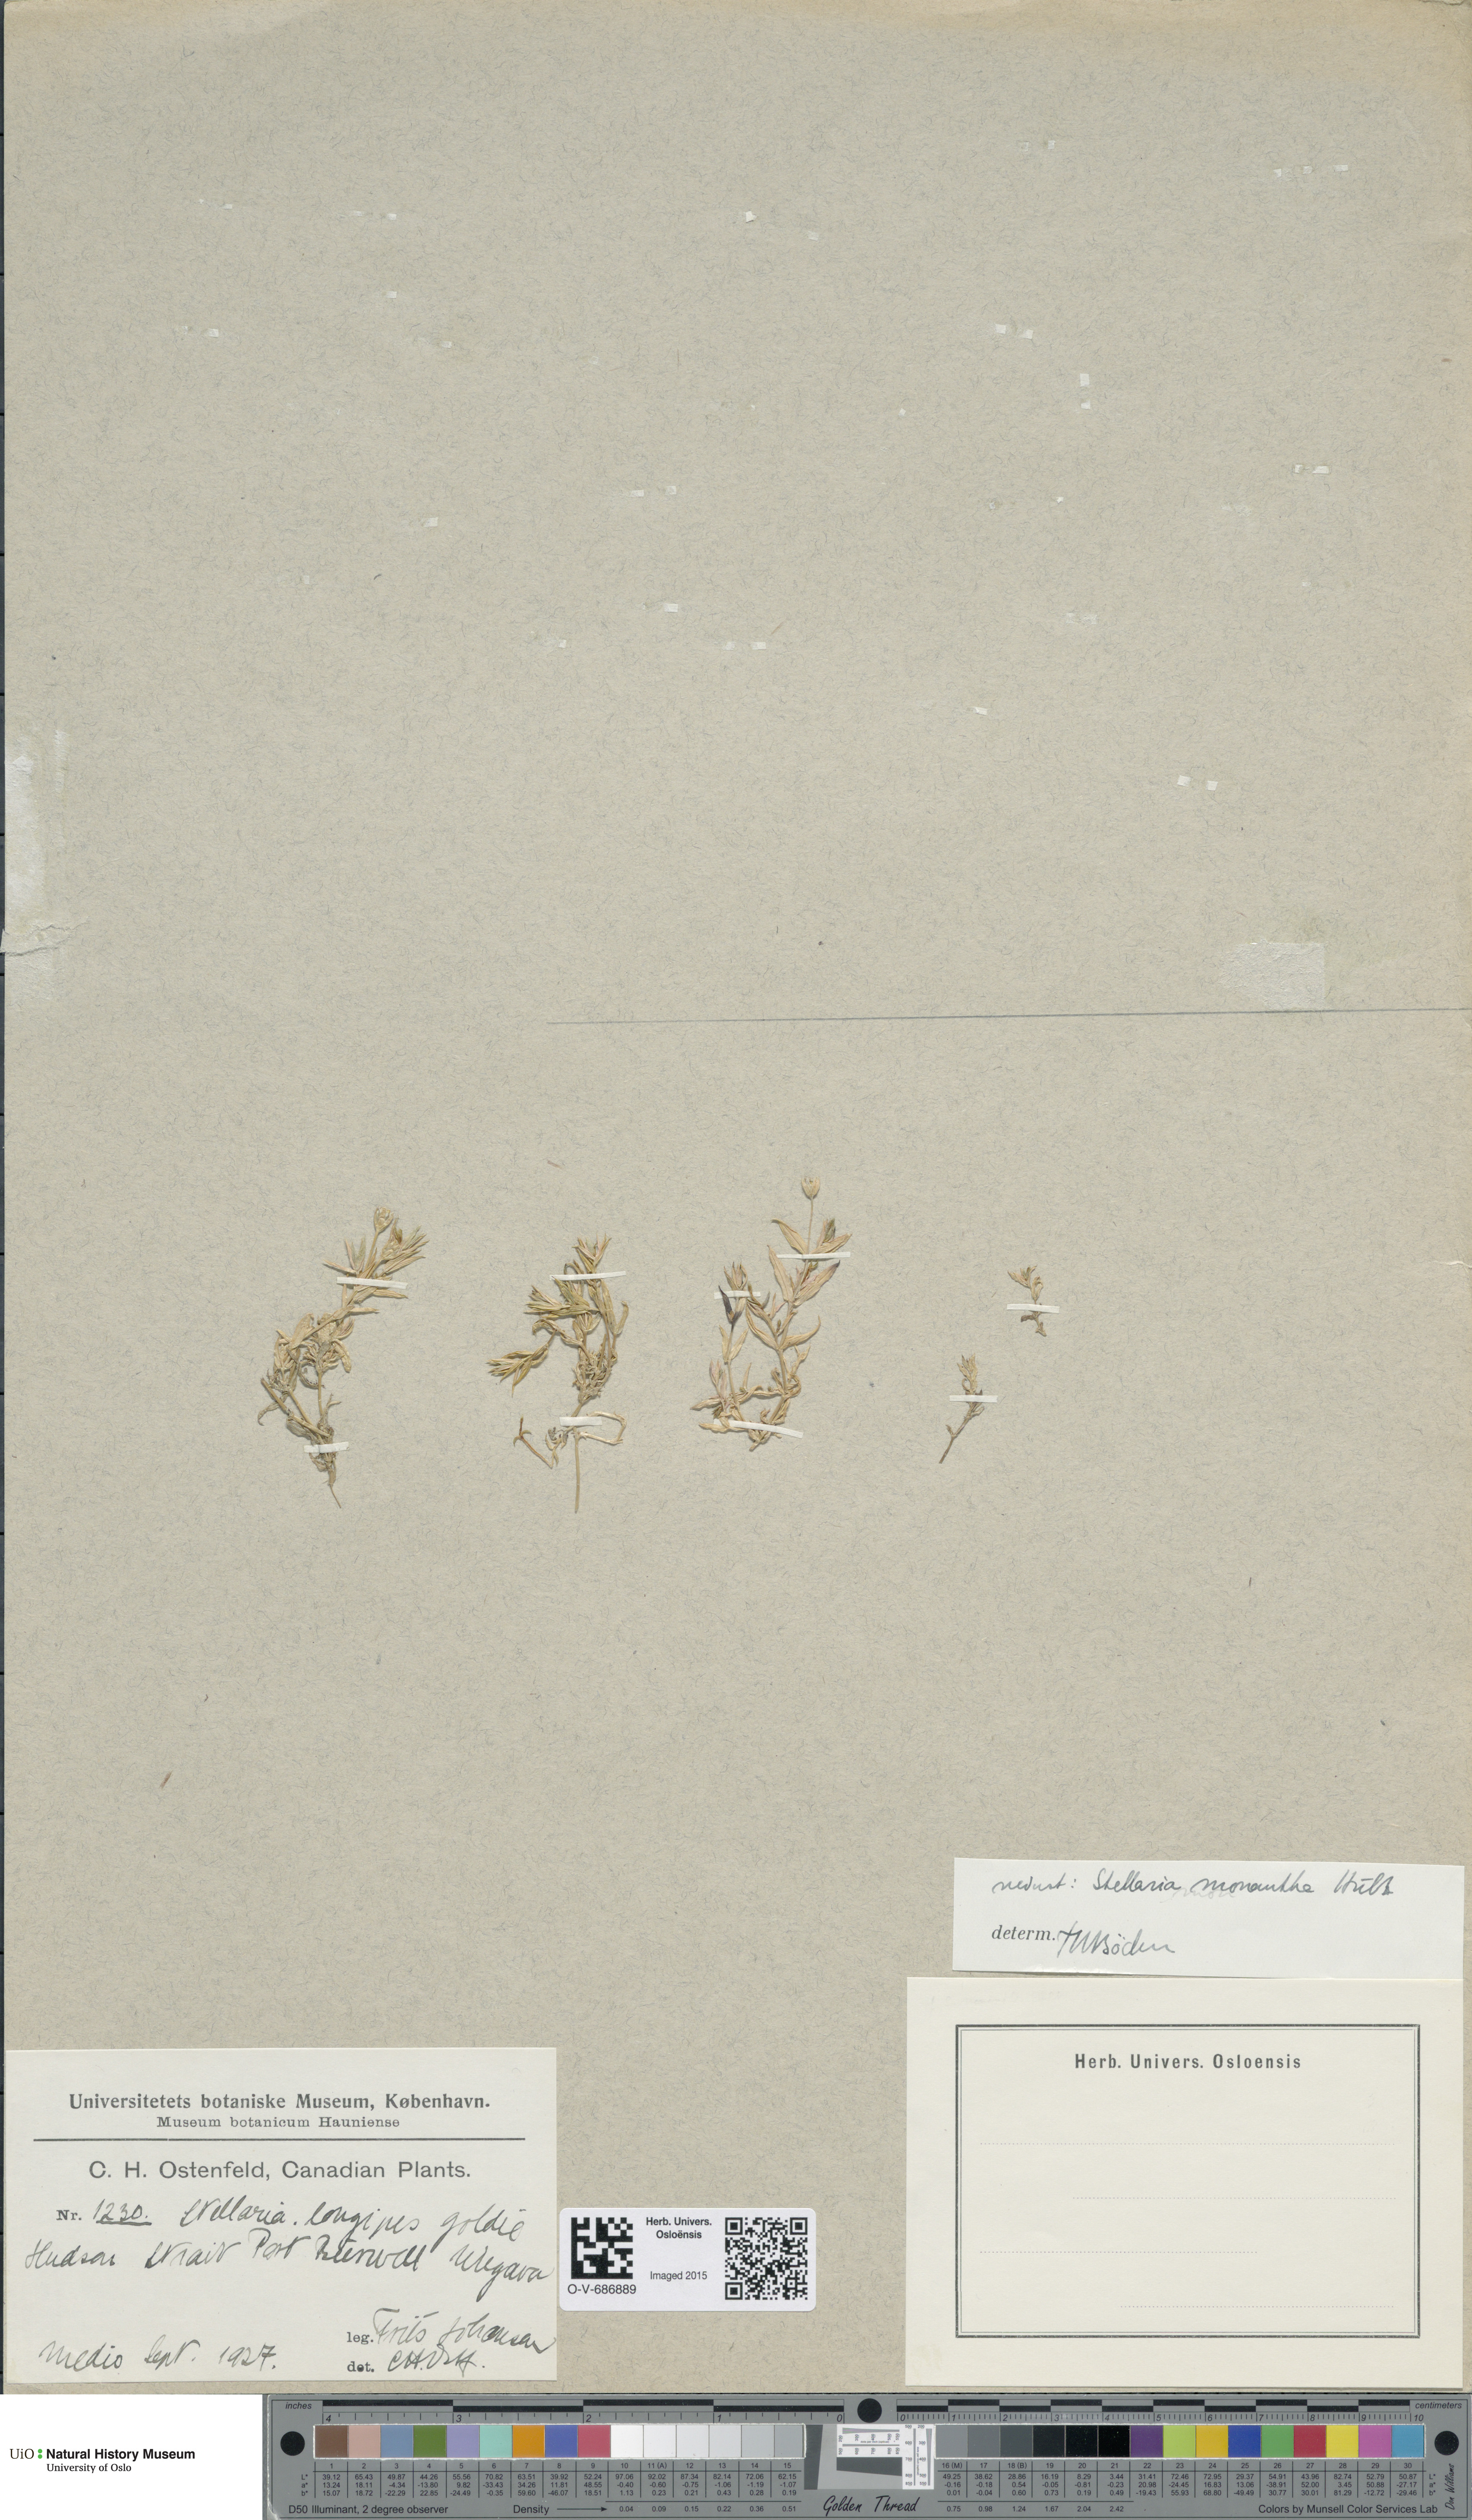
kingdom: Plantae
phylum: Tracheophyta
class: Magnoliopsida
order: Caryophyllales
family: Caryophyllaceae
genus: Stellaria
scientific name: Stellaria longipes
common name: Goldie's starwort
